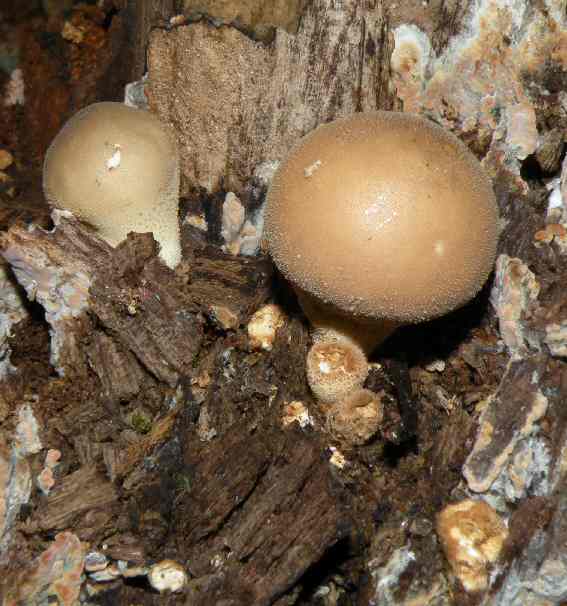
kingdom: Fungi
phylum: Basidiomycota
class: Agaricomycetes
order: Agaricales
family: Lycoperdaceae
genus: Apioperdon
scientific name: Apioperdon pyriforme
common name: pære-støvbold
